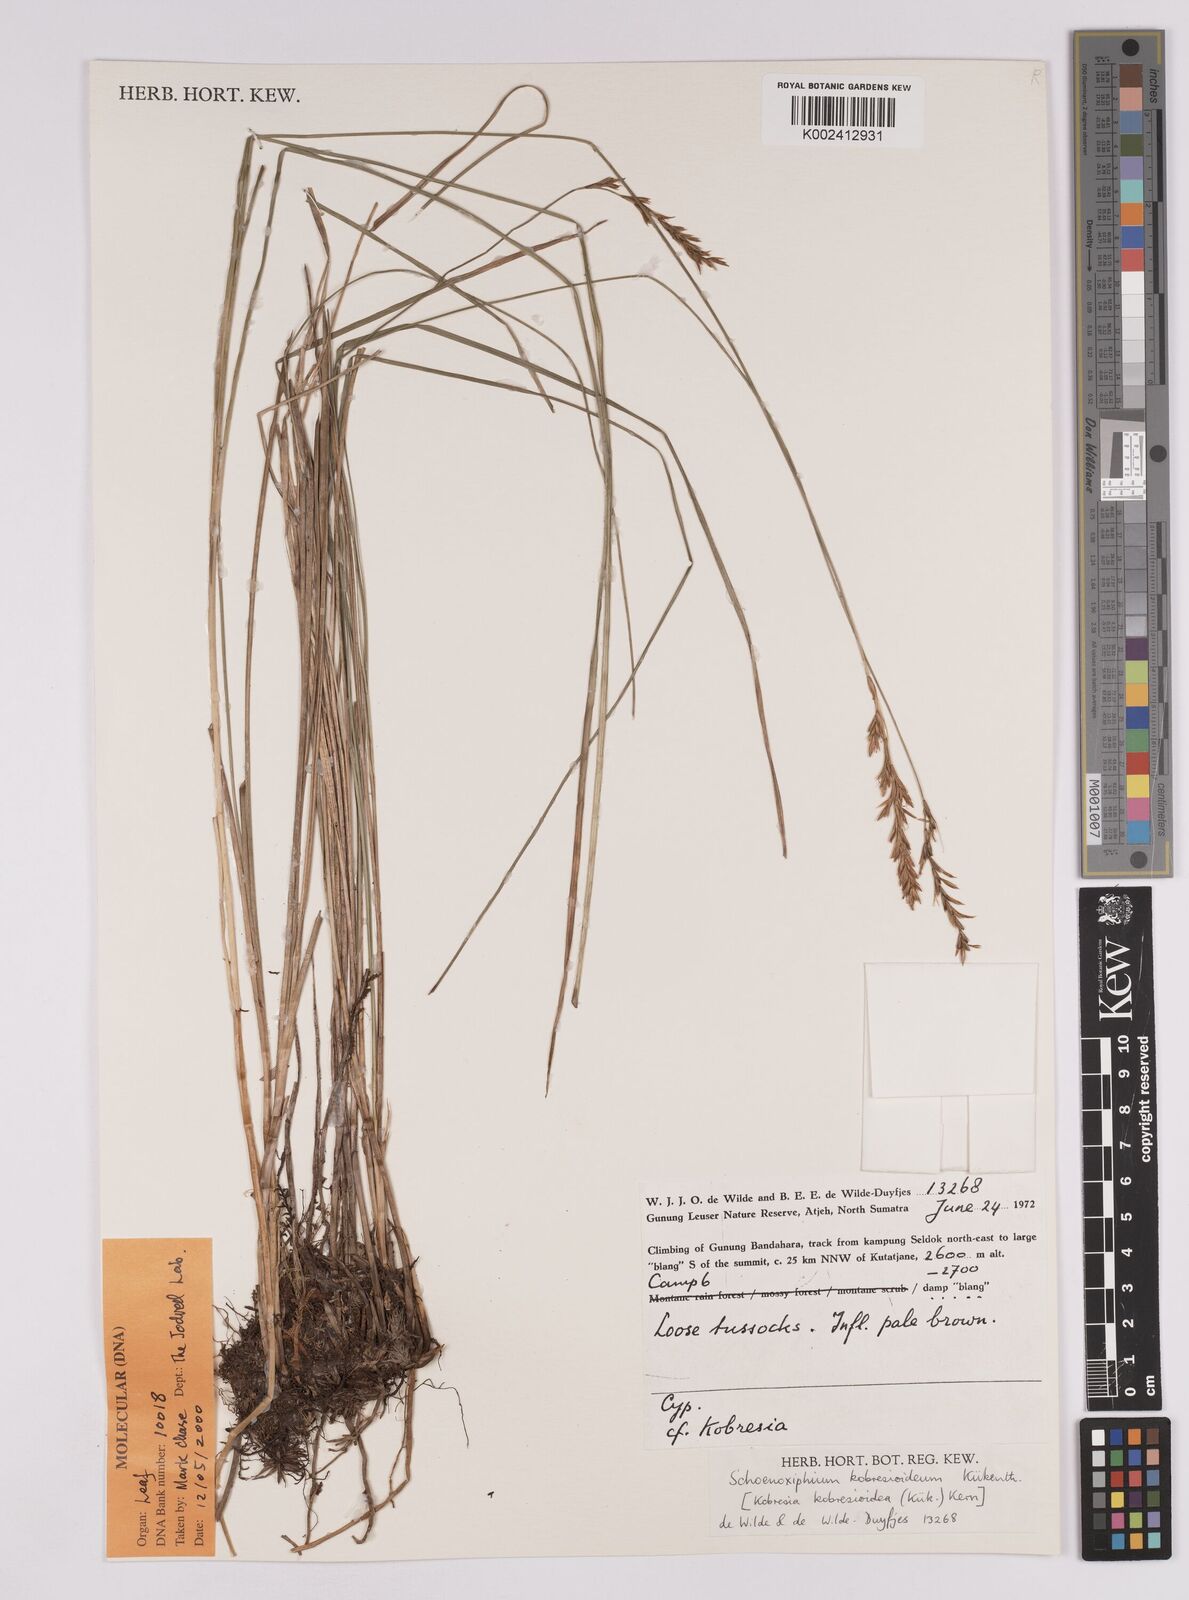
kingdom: Plantae
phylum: Tracheophyta
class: Liliopsida
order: Poales
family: Cyperaceae
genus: Carex
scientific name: Carex kobresioidea
